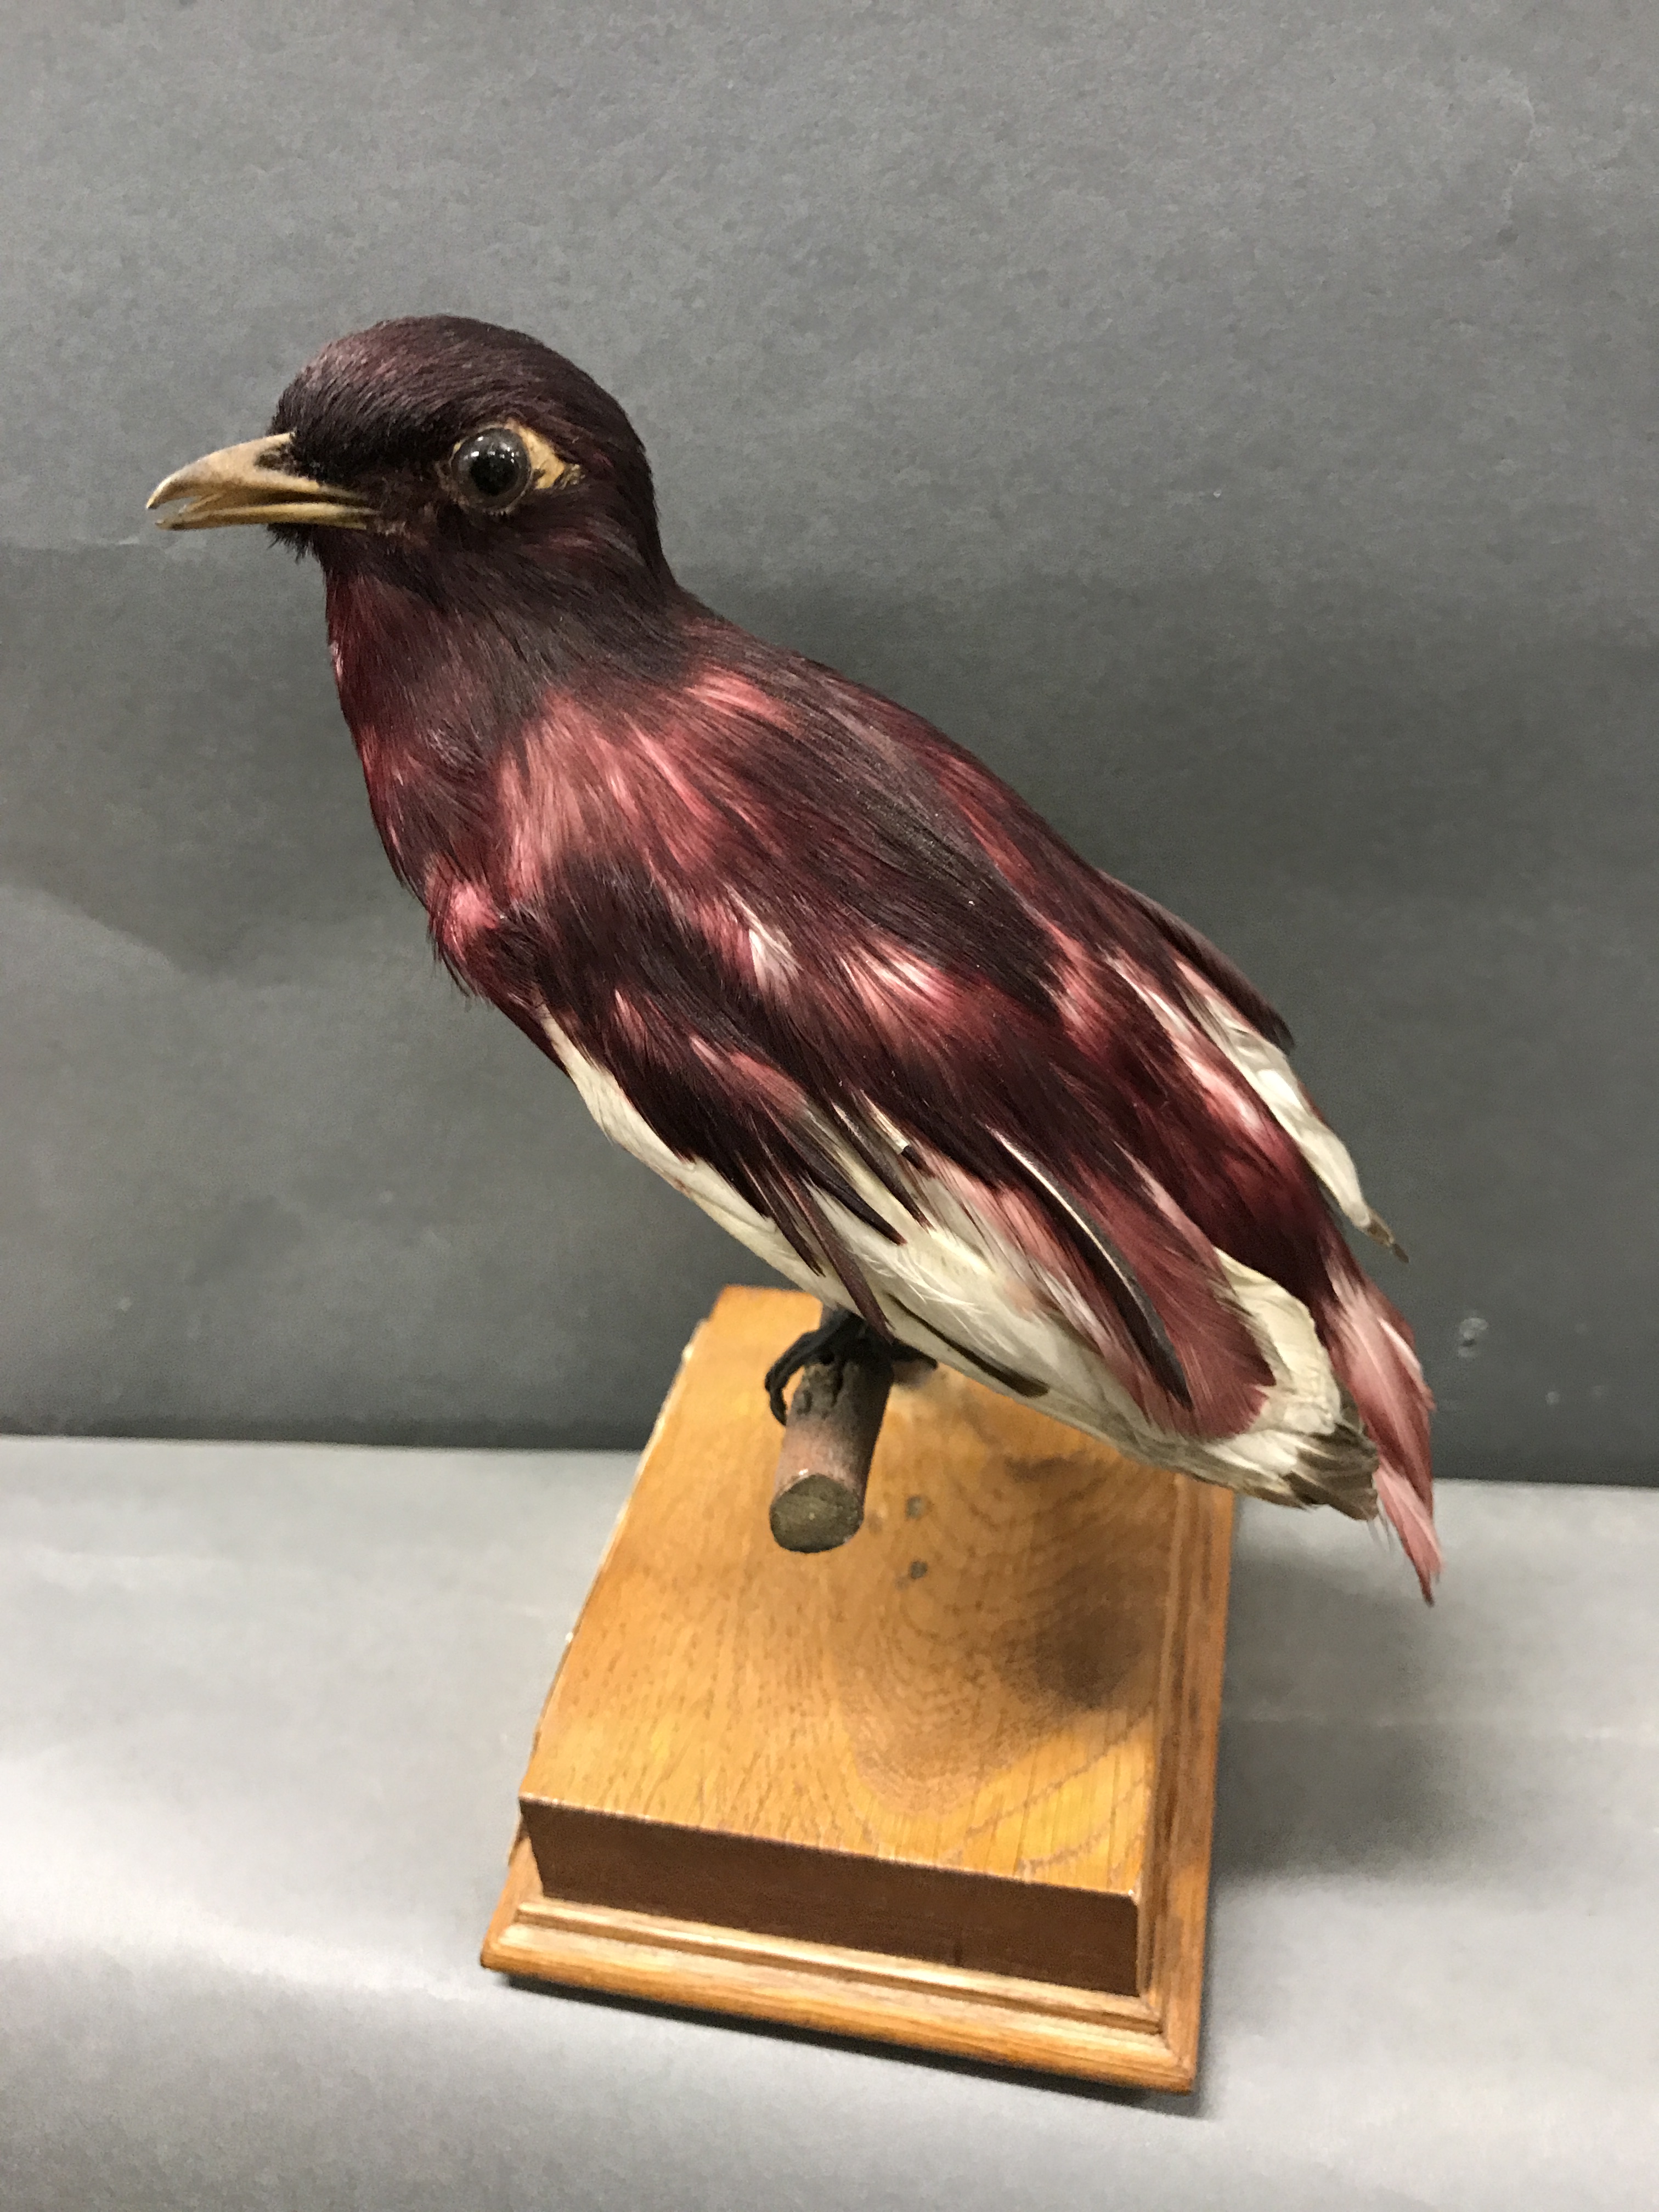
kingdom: Animalia
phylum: Chordata
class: Aves
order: Passeriformes
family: Cotingidae
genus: Xipholena
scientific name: Xipholena punicea
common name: Pompadour cotinga
